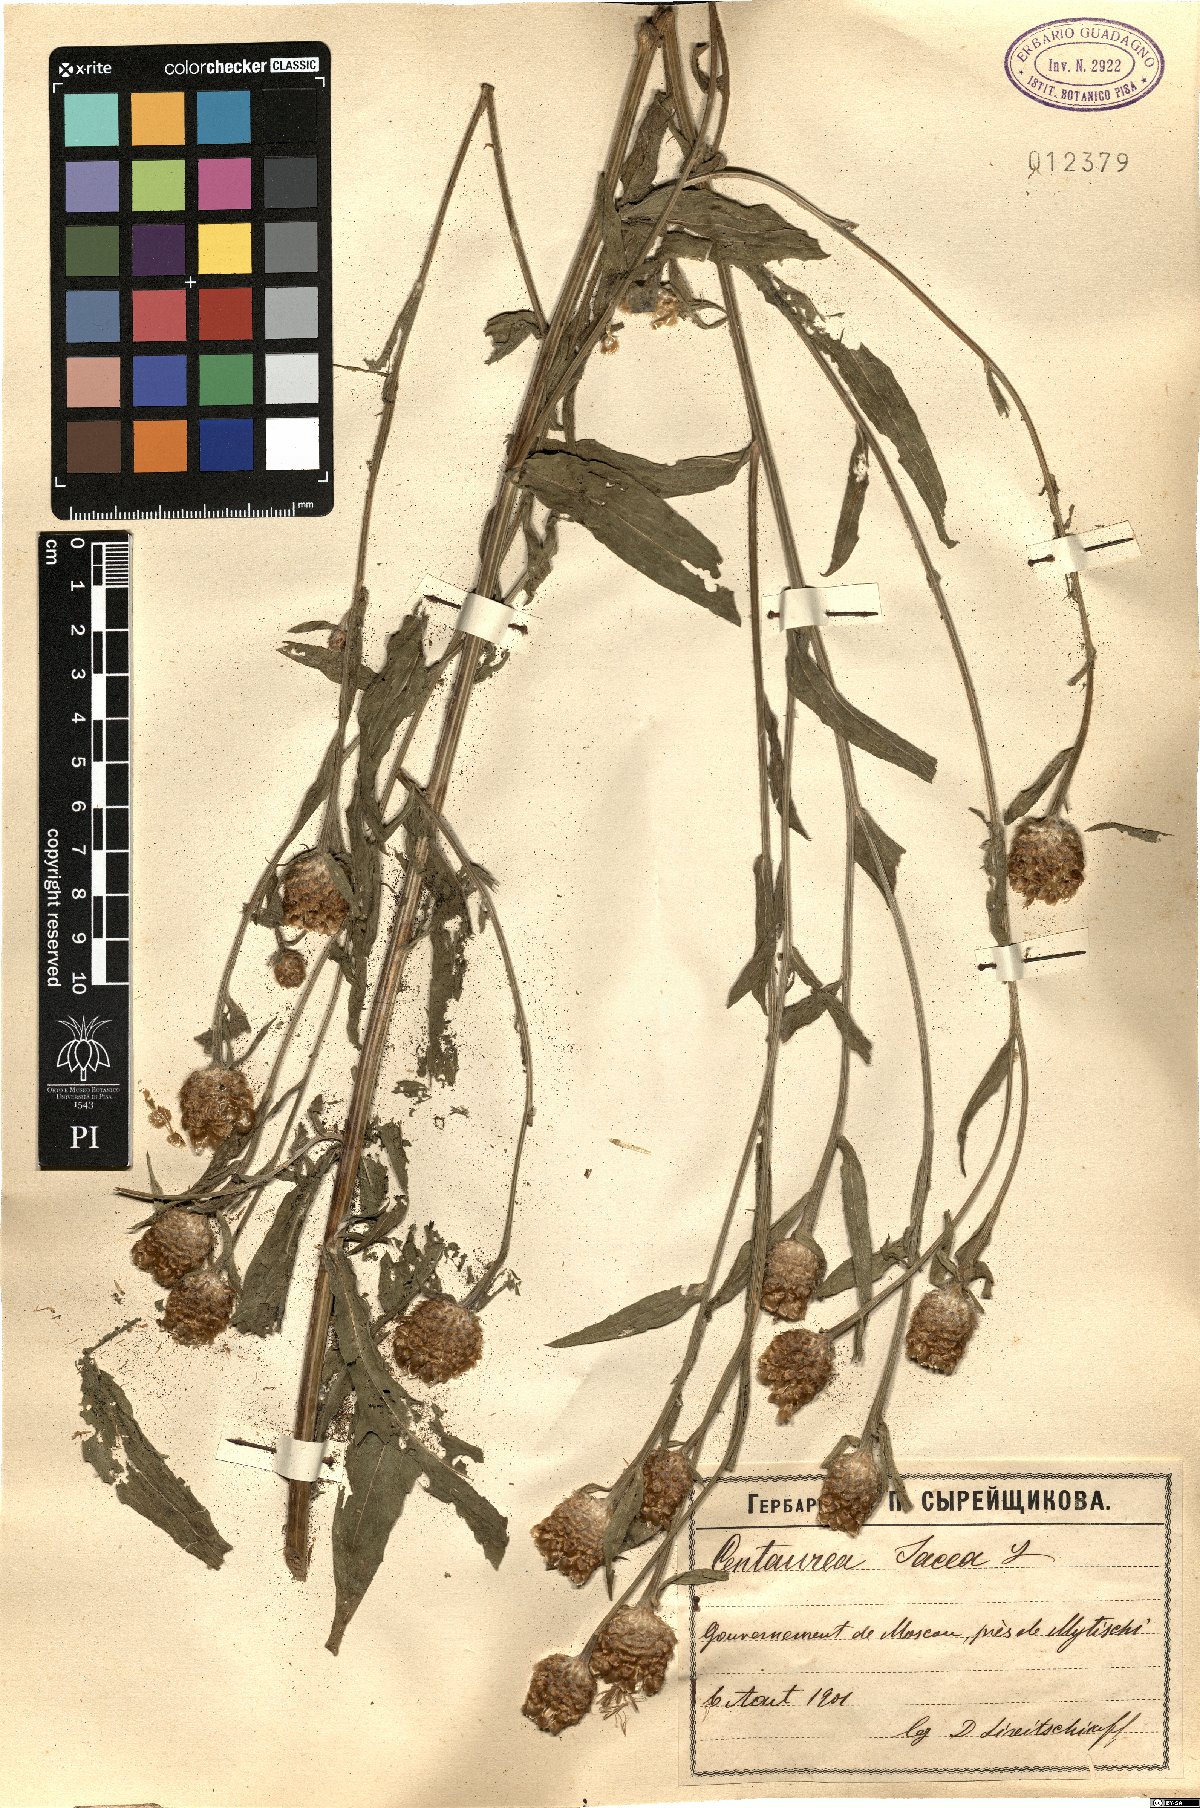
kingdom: Plantae
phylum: Tracheophyta
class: Magnoliopsida
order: Asterales
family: Asteraceae
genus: Centaurea
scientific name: Centaurea jacea
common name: Brown knapweed
